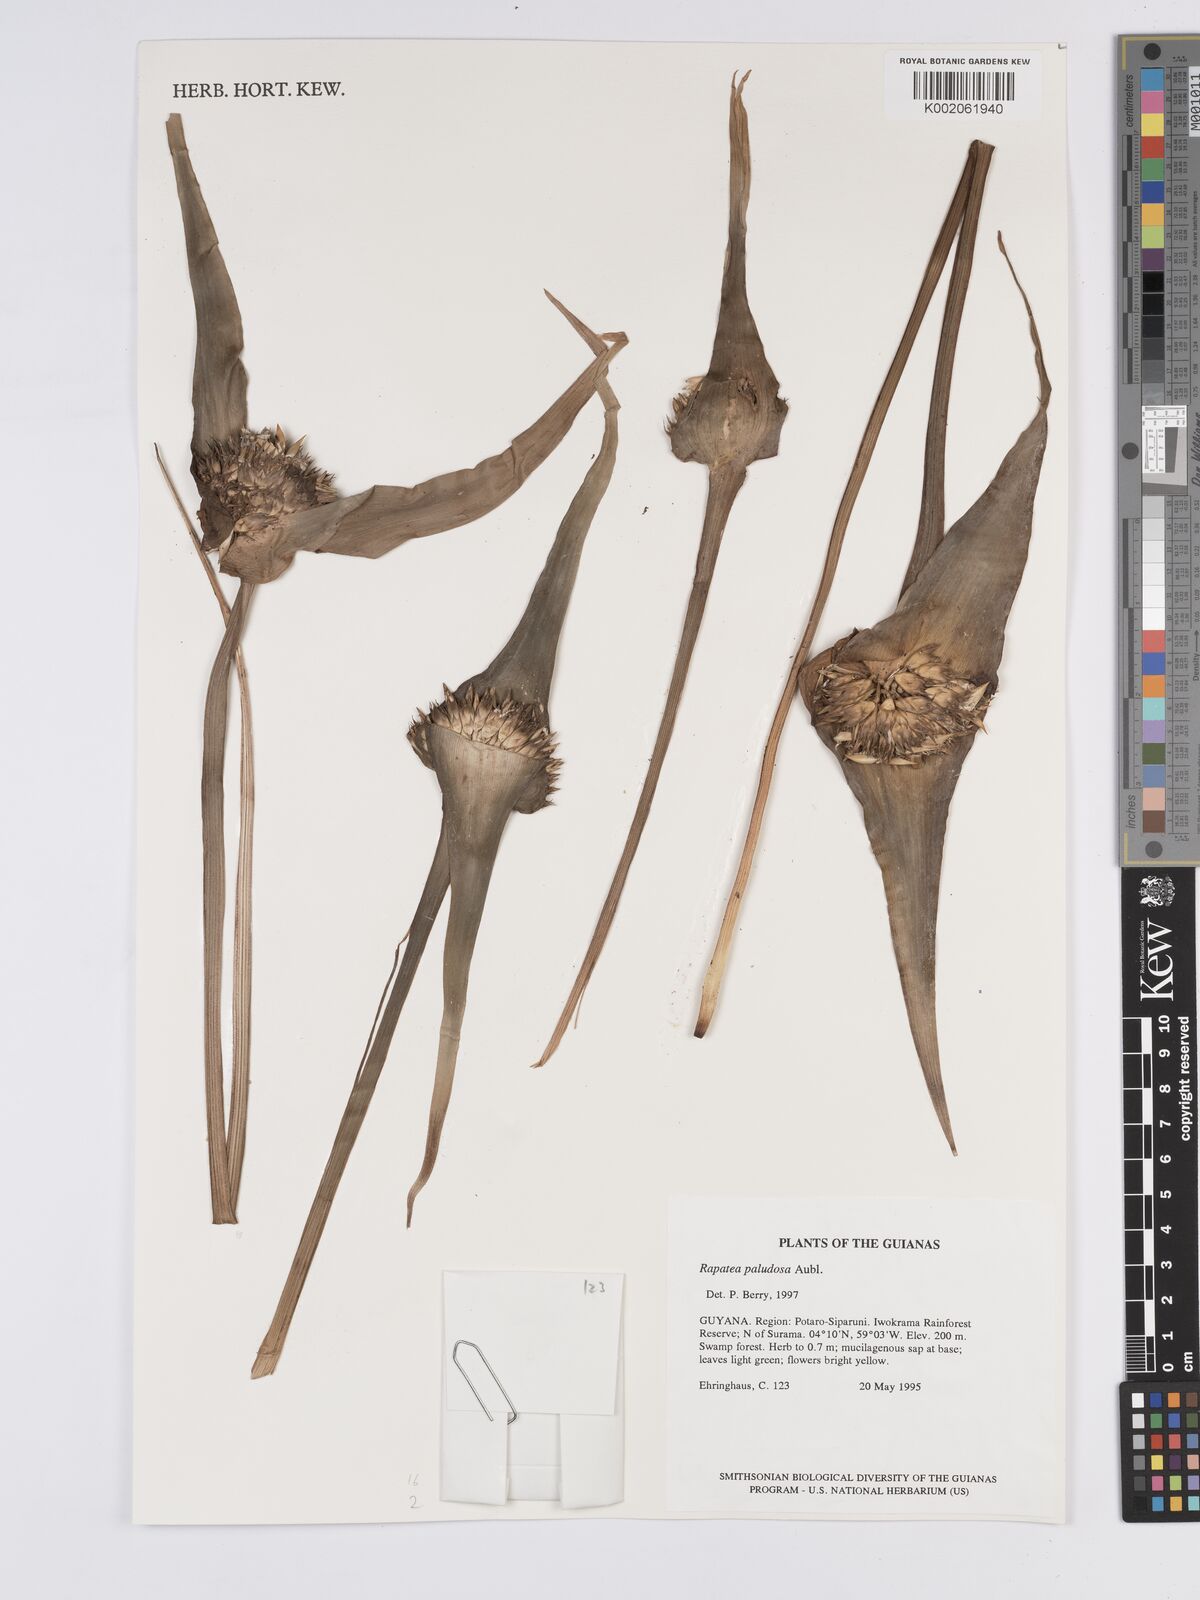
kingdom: Plantae
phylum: Tracheophyta
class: Liliopsida
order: Poales
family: Rapateaceae
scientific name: Rapateaceae
